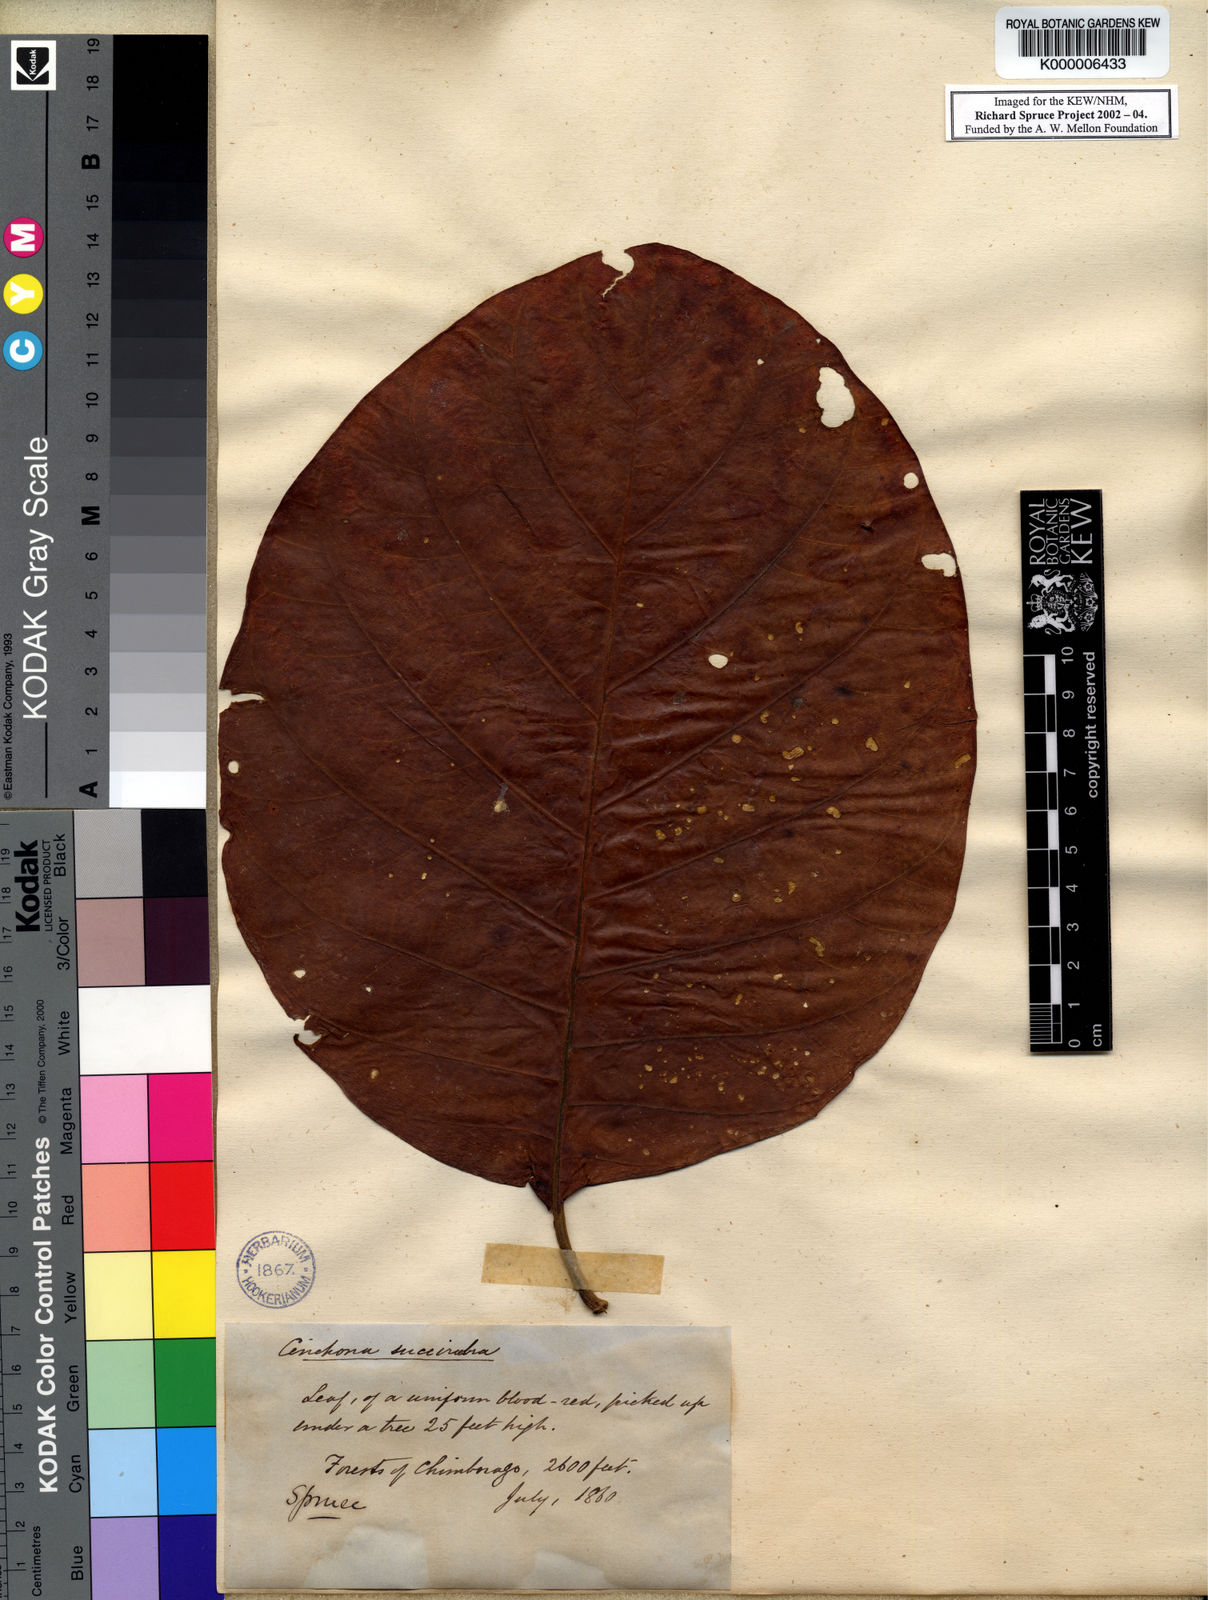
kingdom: Plantae
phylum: Tracheophyta
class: Magnoliopsida
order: Gentianales
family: Rubiaceae
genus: Cinchona
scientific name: Cinchona pubescens
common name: Quinine
